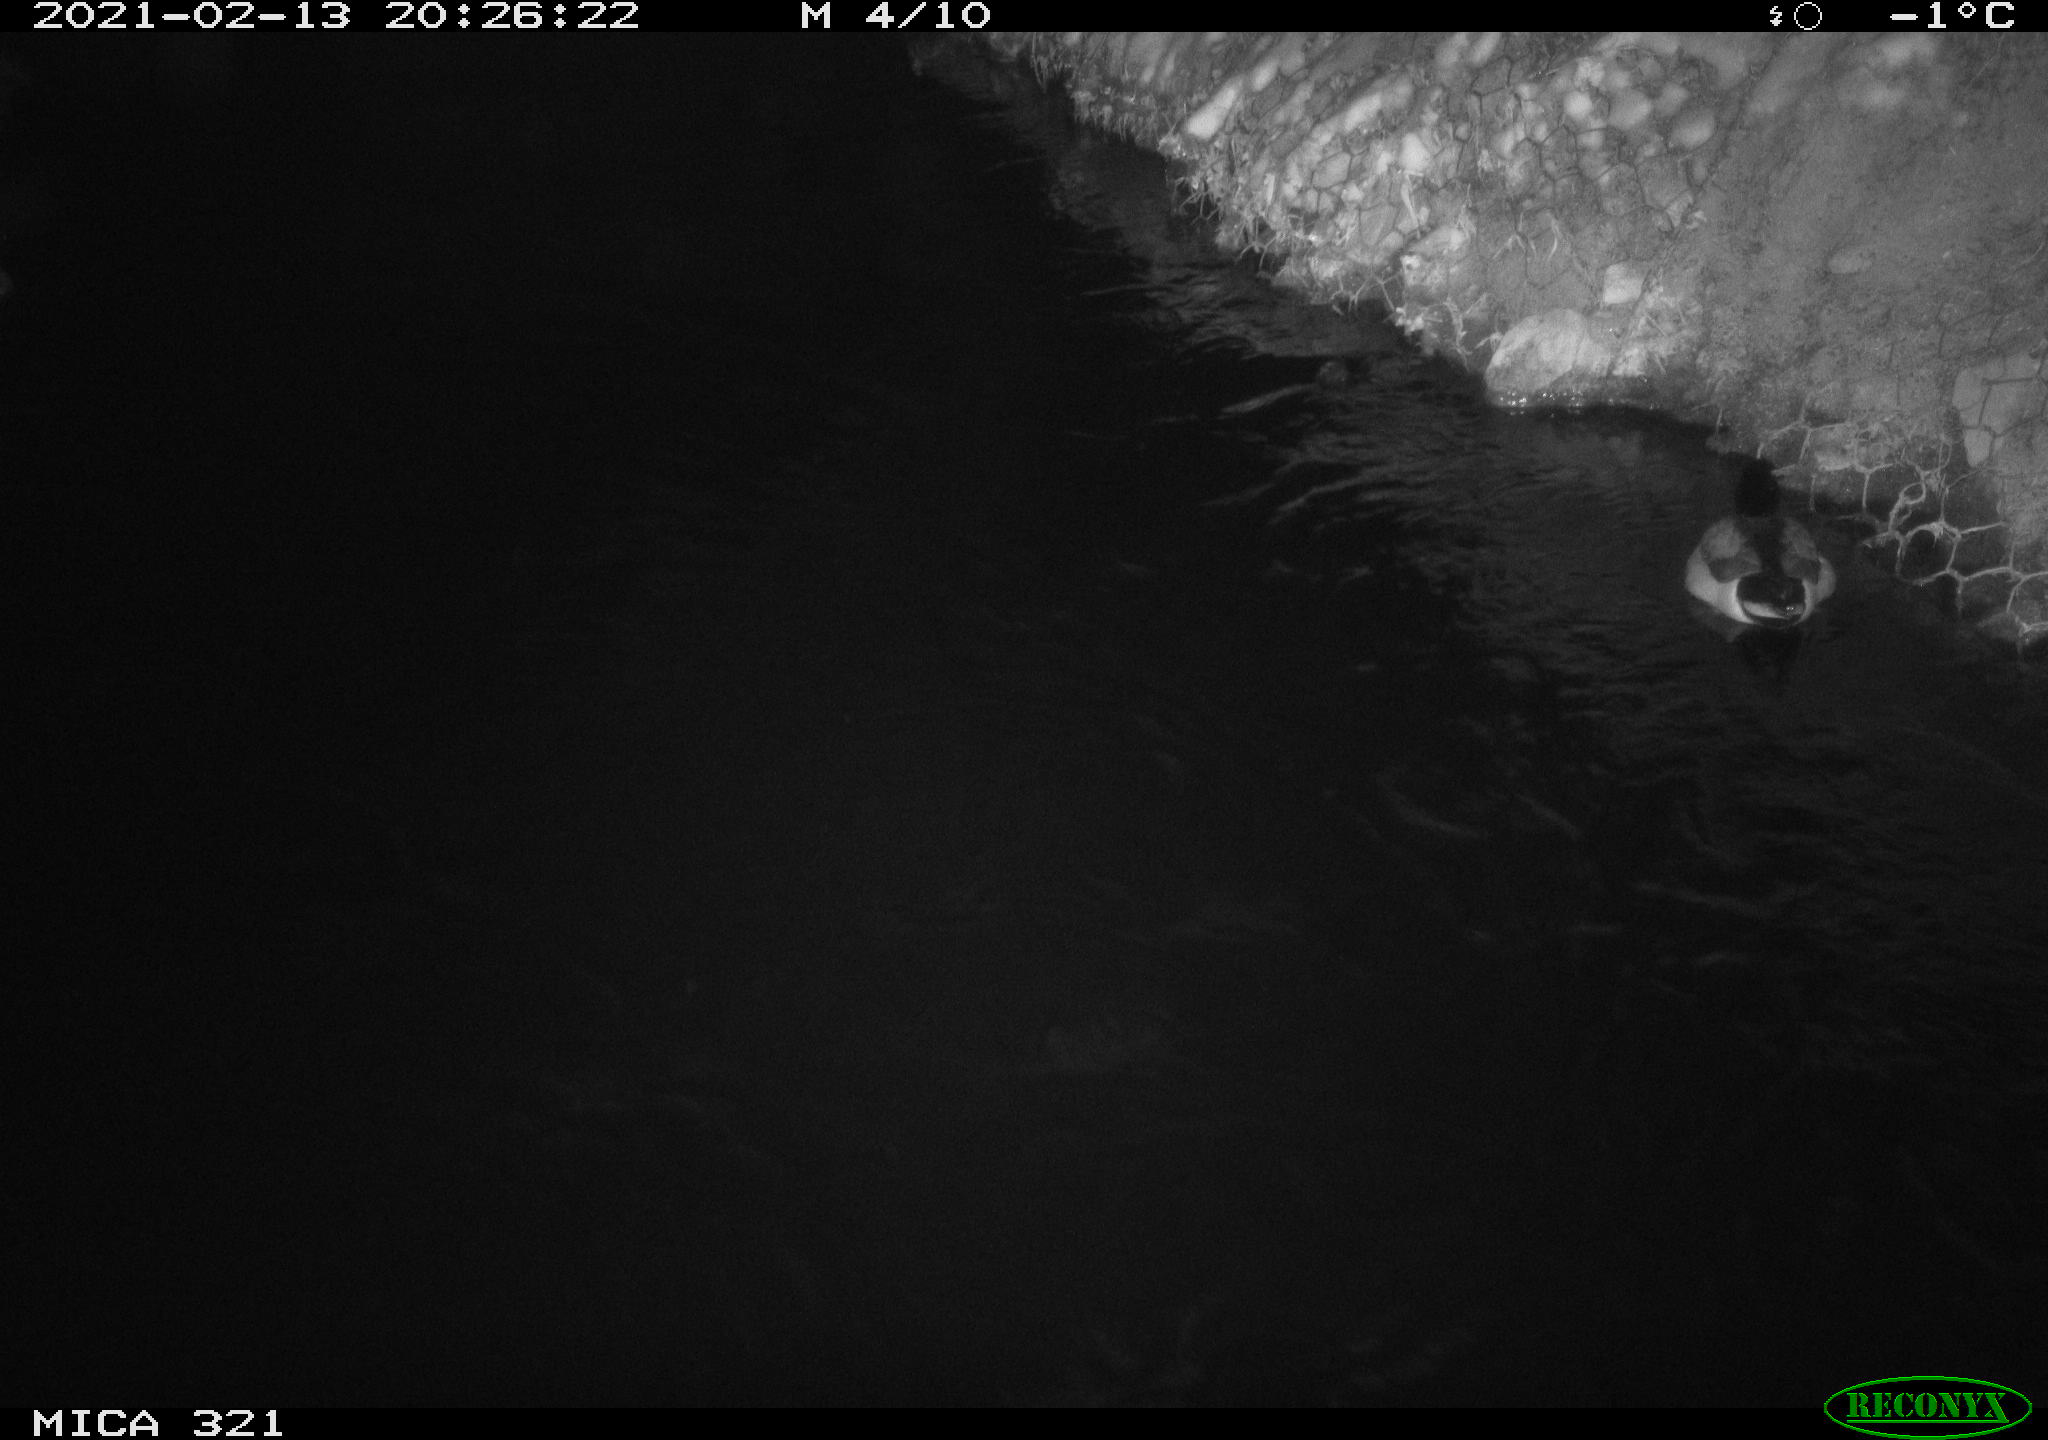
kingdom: Animalia
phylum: Chordata
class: Aves
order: Anseriformes
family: Anatidae
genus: Anas
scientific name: Anas platyrhynchos
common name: Mallard
